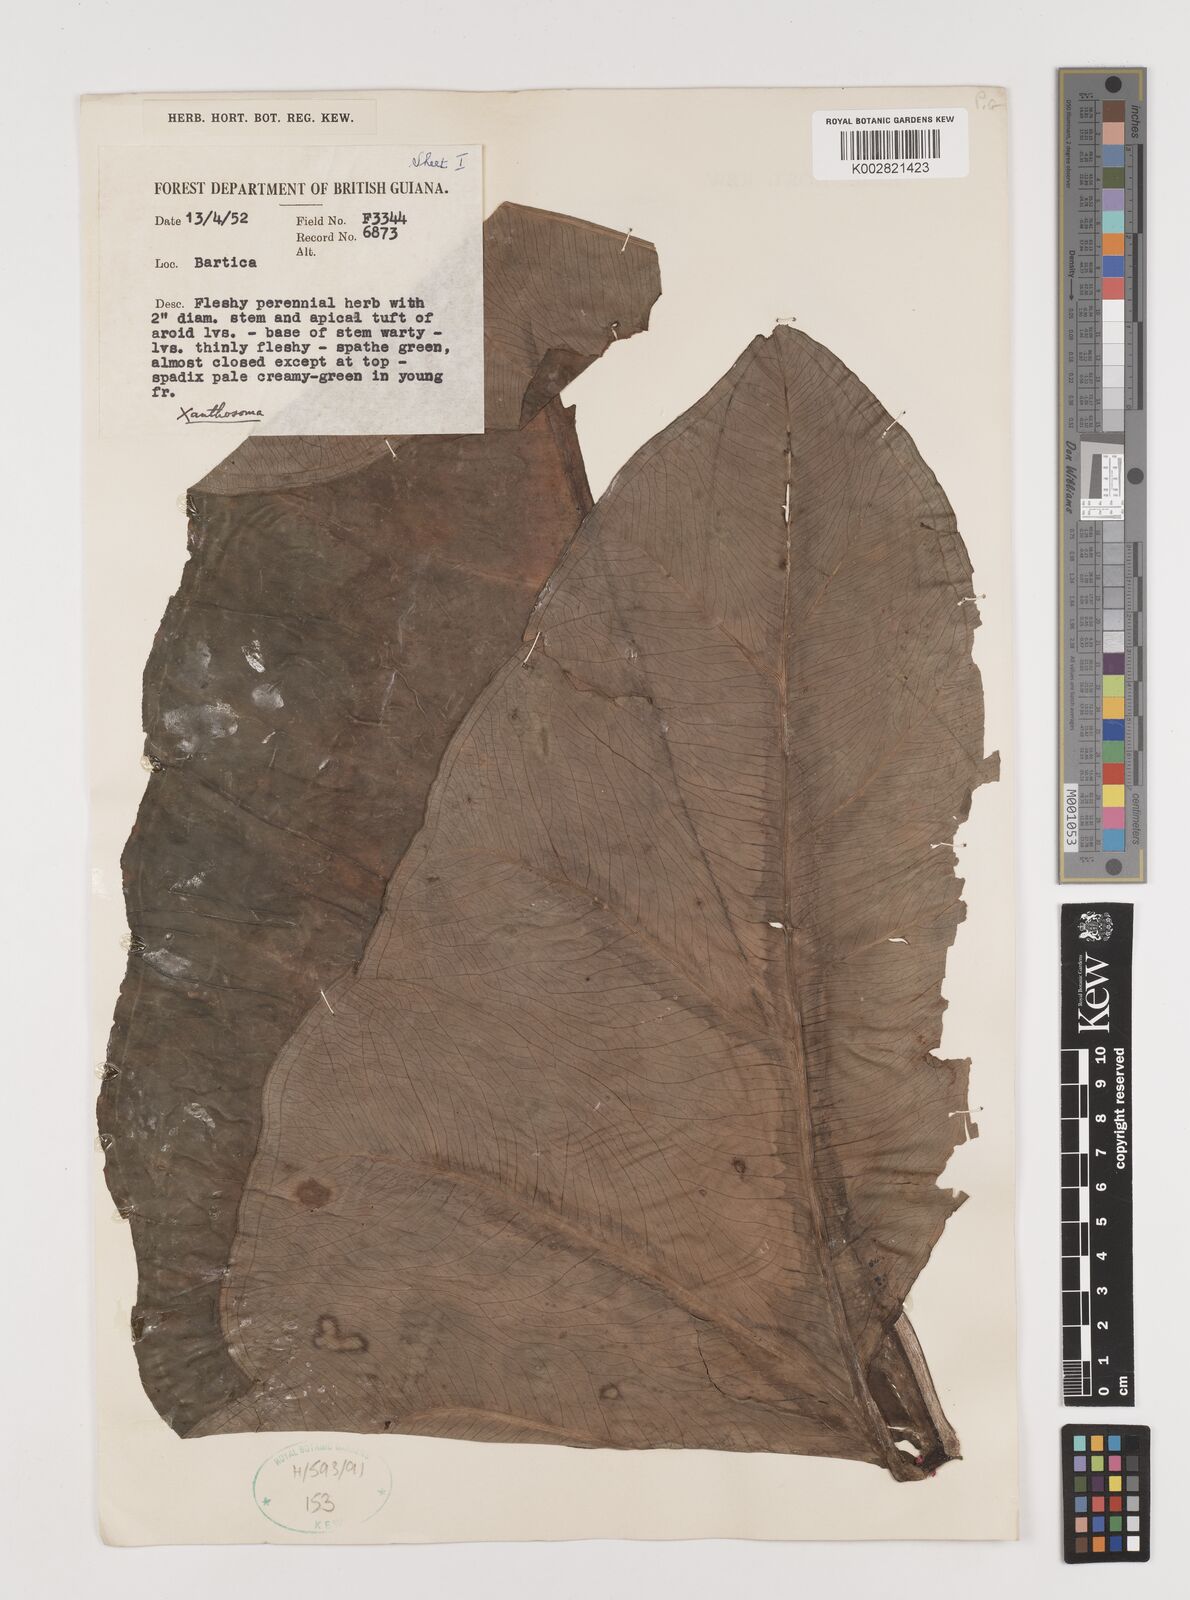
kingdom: Plantae
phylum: Tracheophyta
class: Liliopsida
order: Alismatales
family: Araceae
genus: Xanthosoma
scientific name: Xanthosoma
